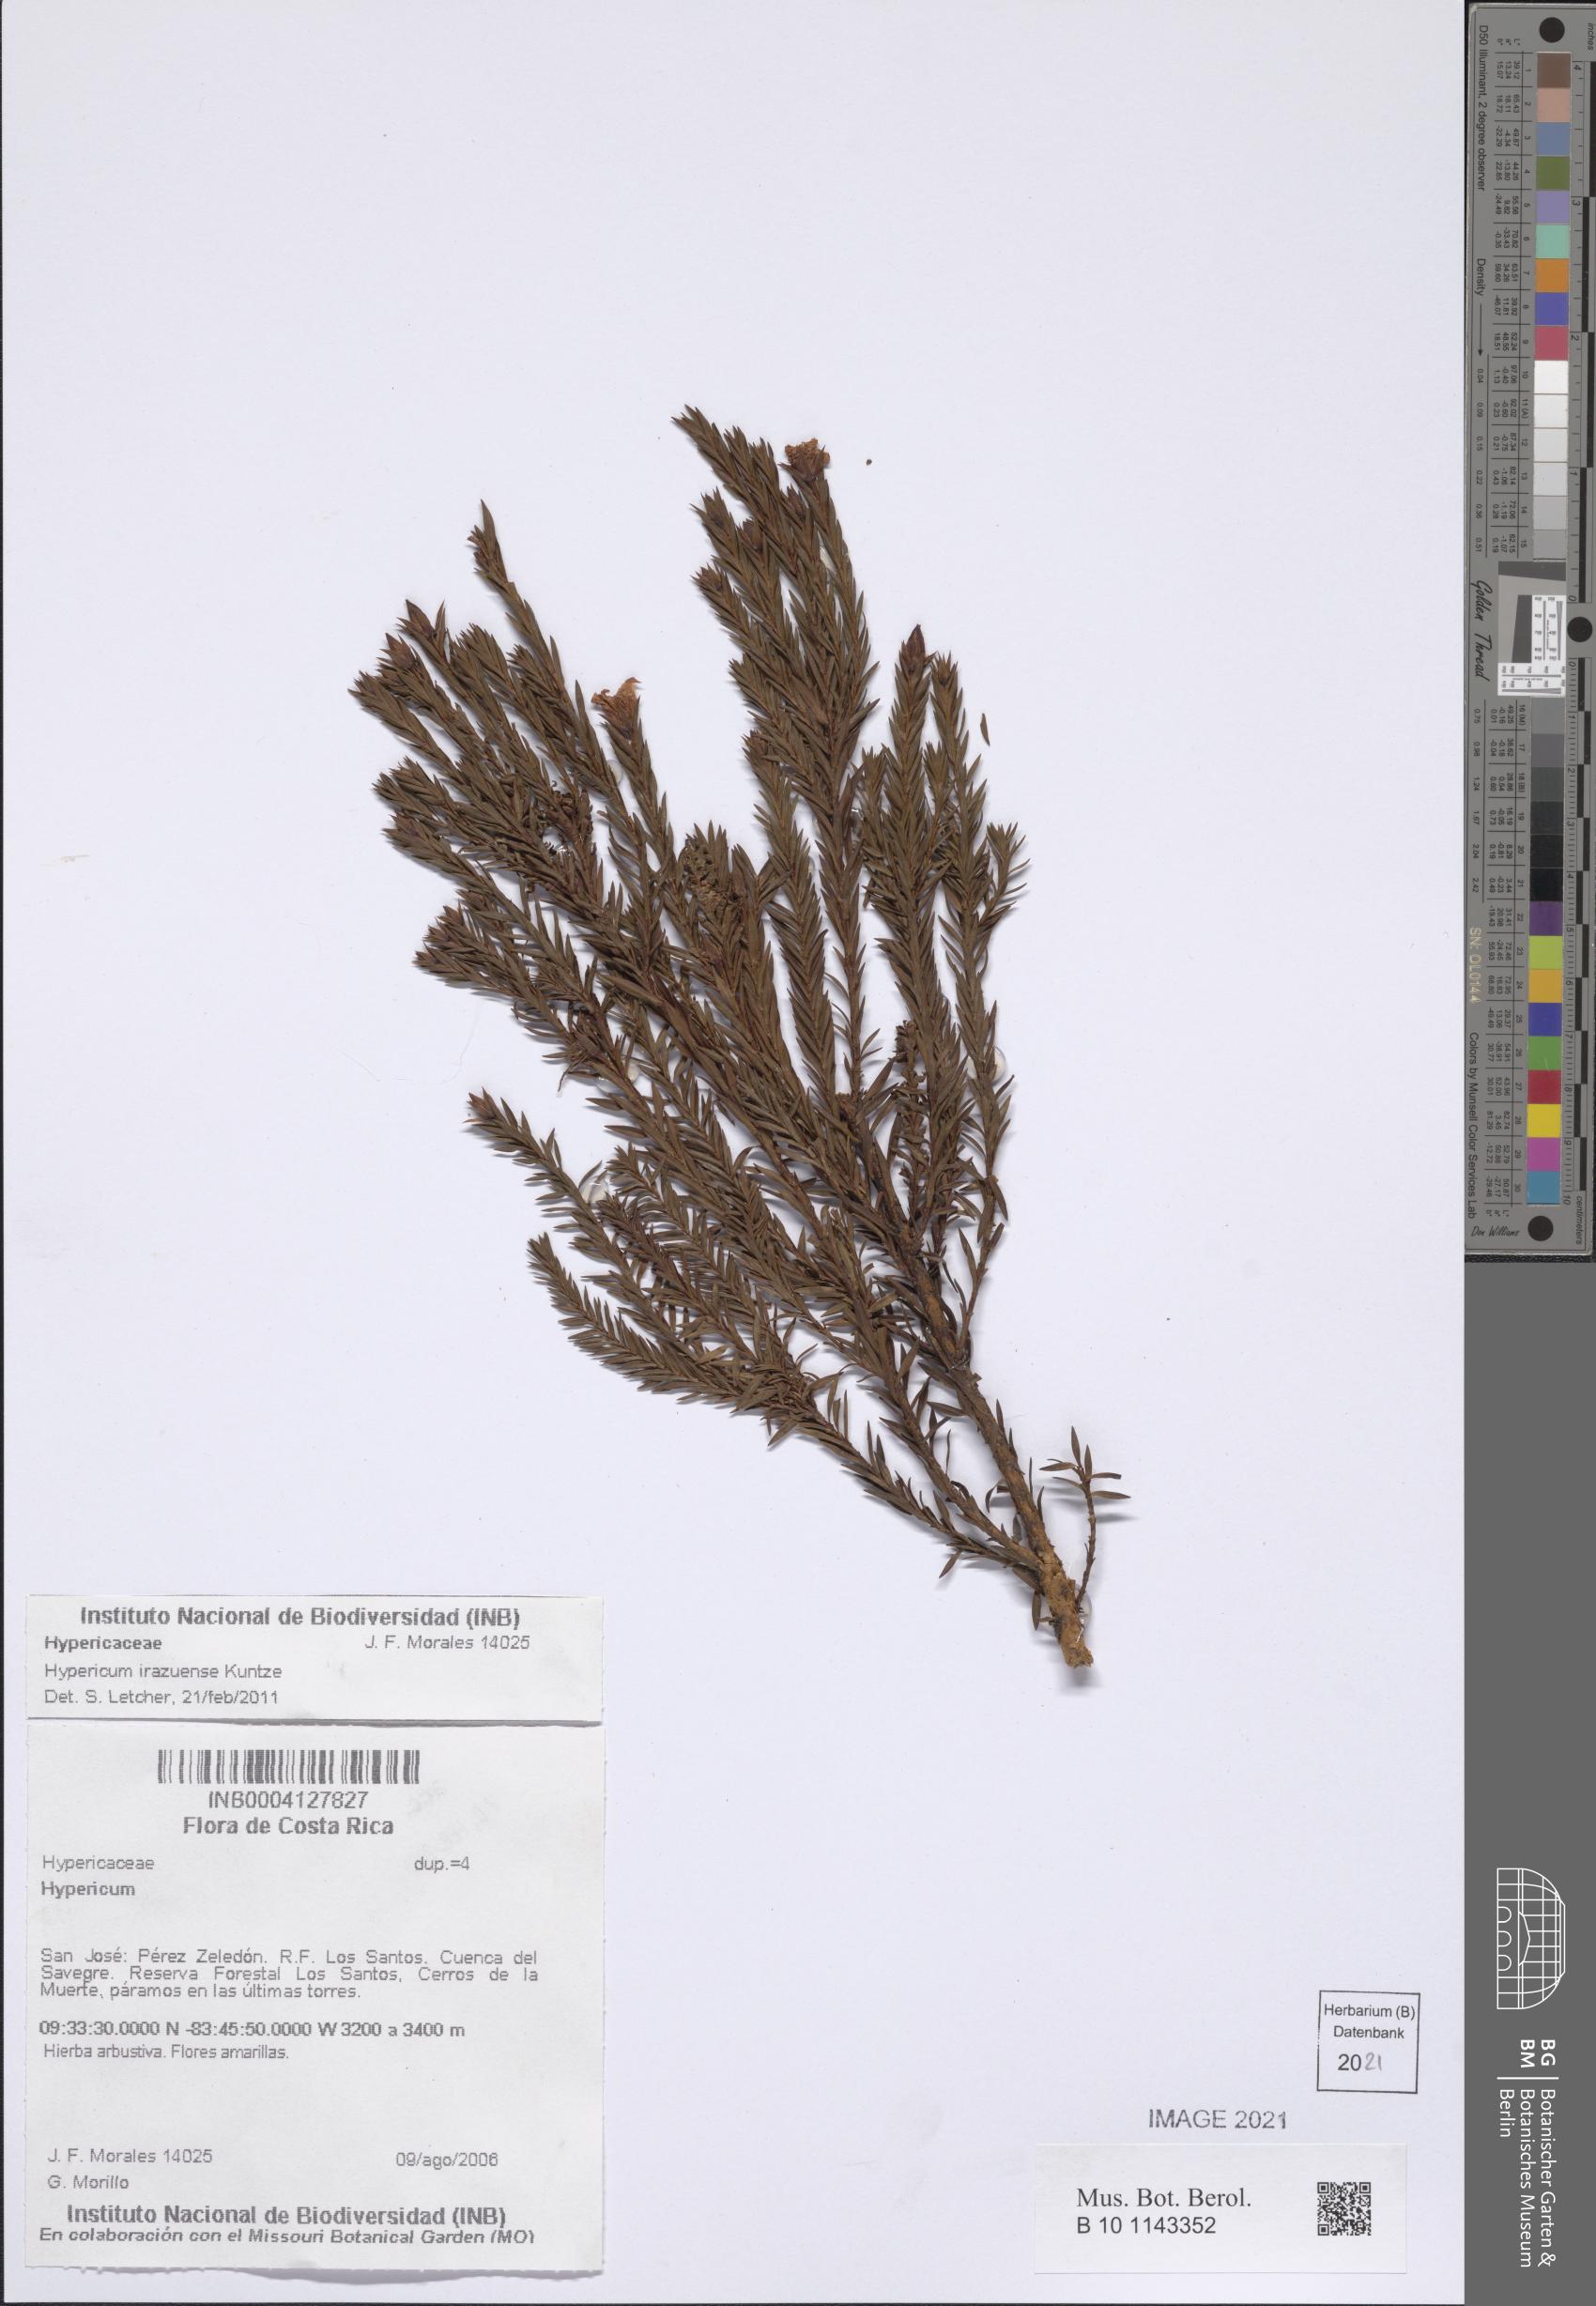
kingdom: Plantae
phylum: Tracheophyta
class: Magnoliopsida
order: Malpighiales
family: Hypericaceae
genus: Hypericum
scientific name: Hypericum irazuense
